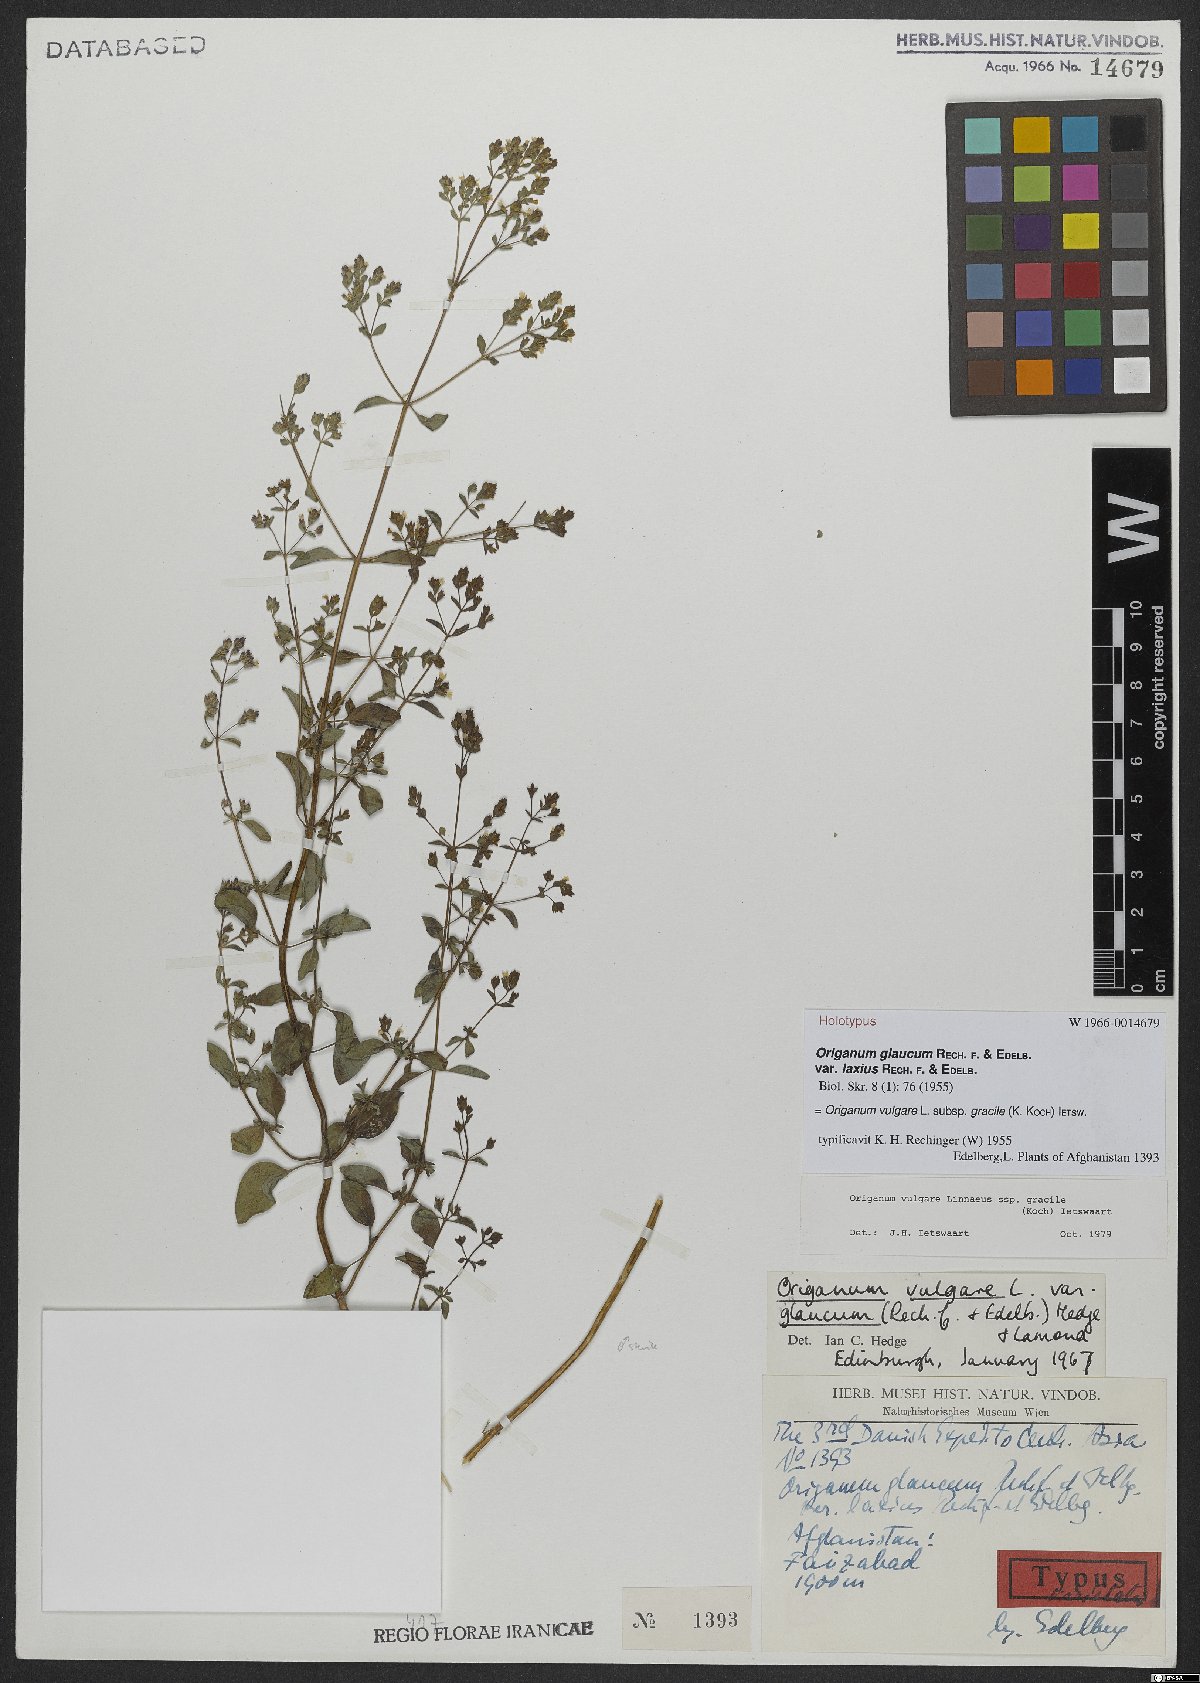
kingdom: Plantae
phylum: Tracheophyta
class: Magnoliopsida
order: Lamiales
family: Lamiaceae
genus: Origanum
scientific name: Origanum vulgare
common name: Wild marjoram
